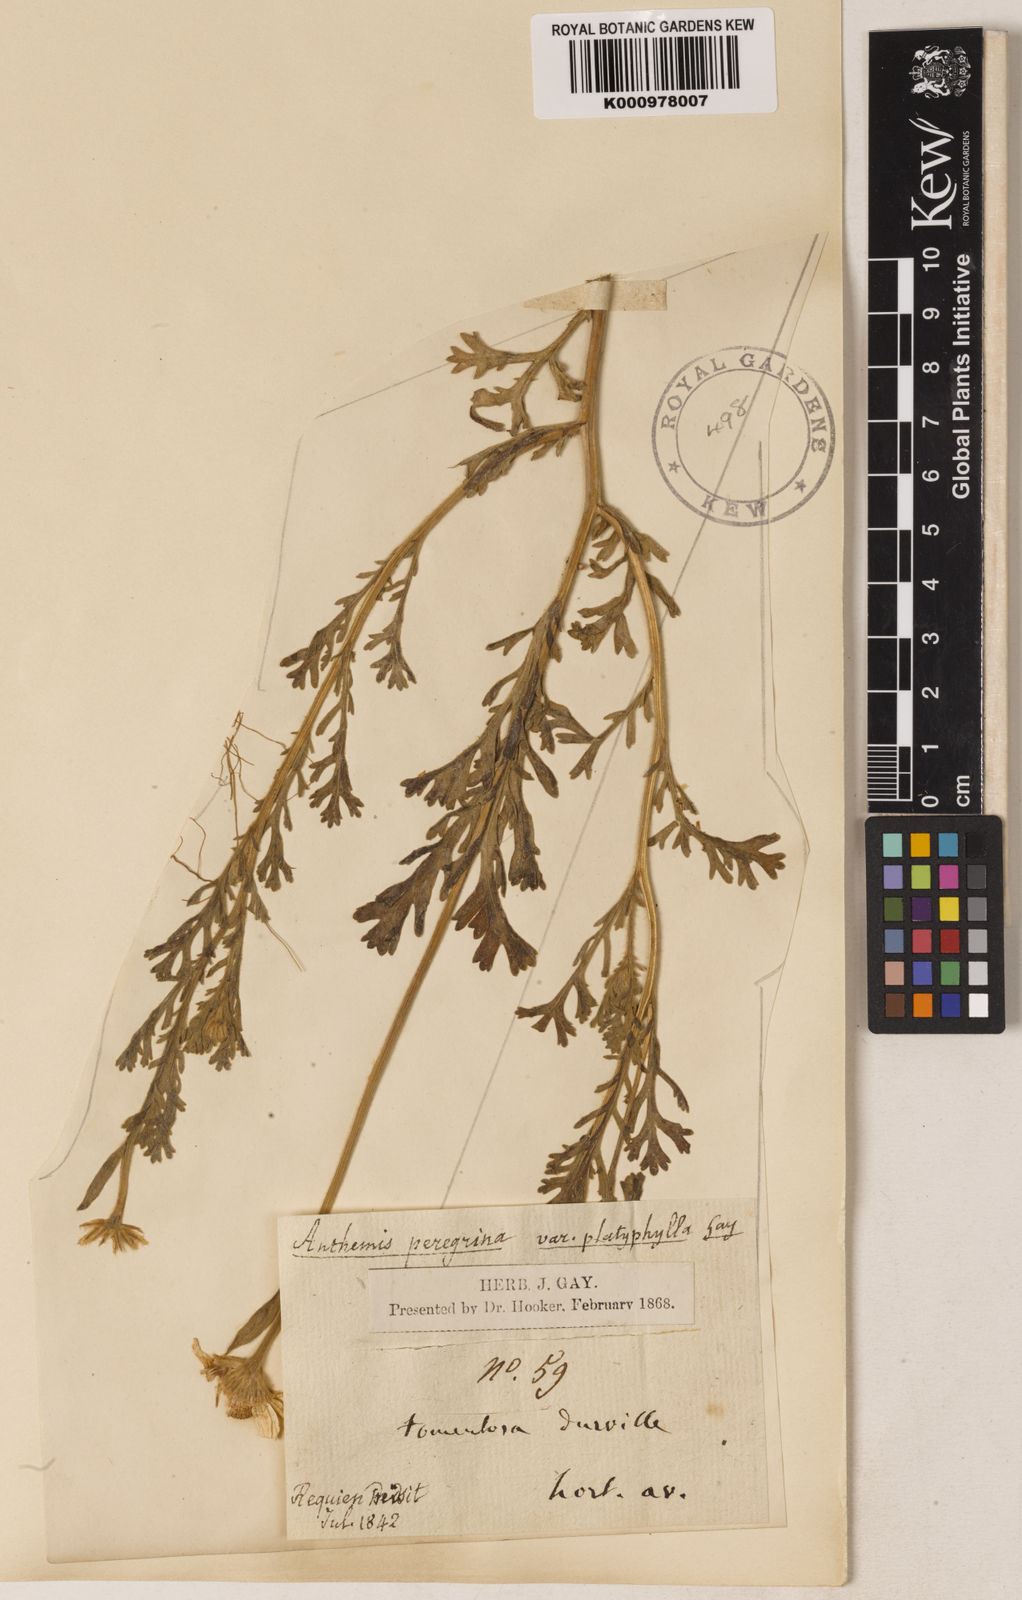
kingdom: Plantae
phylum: Tracheophyta
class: Magnoliopsida
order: Asterales
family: Asteraceae
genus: Anthemis
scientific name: Anthemis tomentosa
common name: Woolly chamomile
